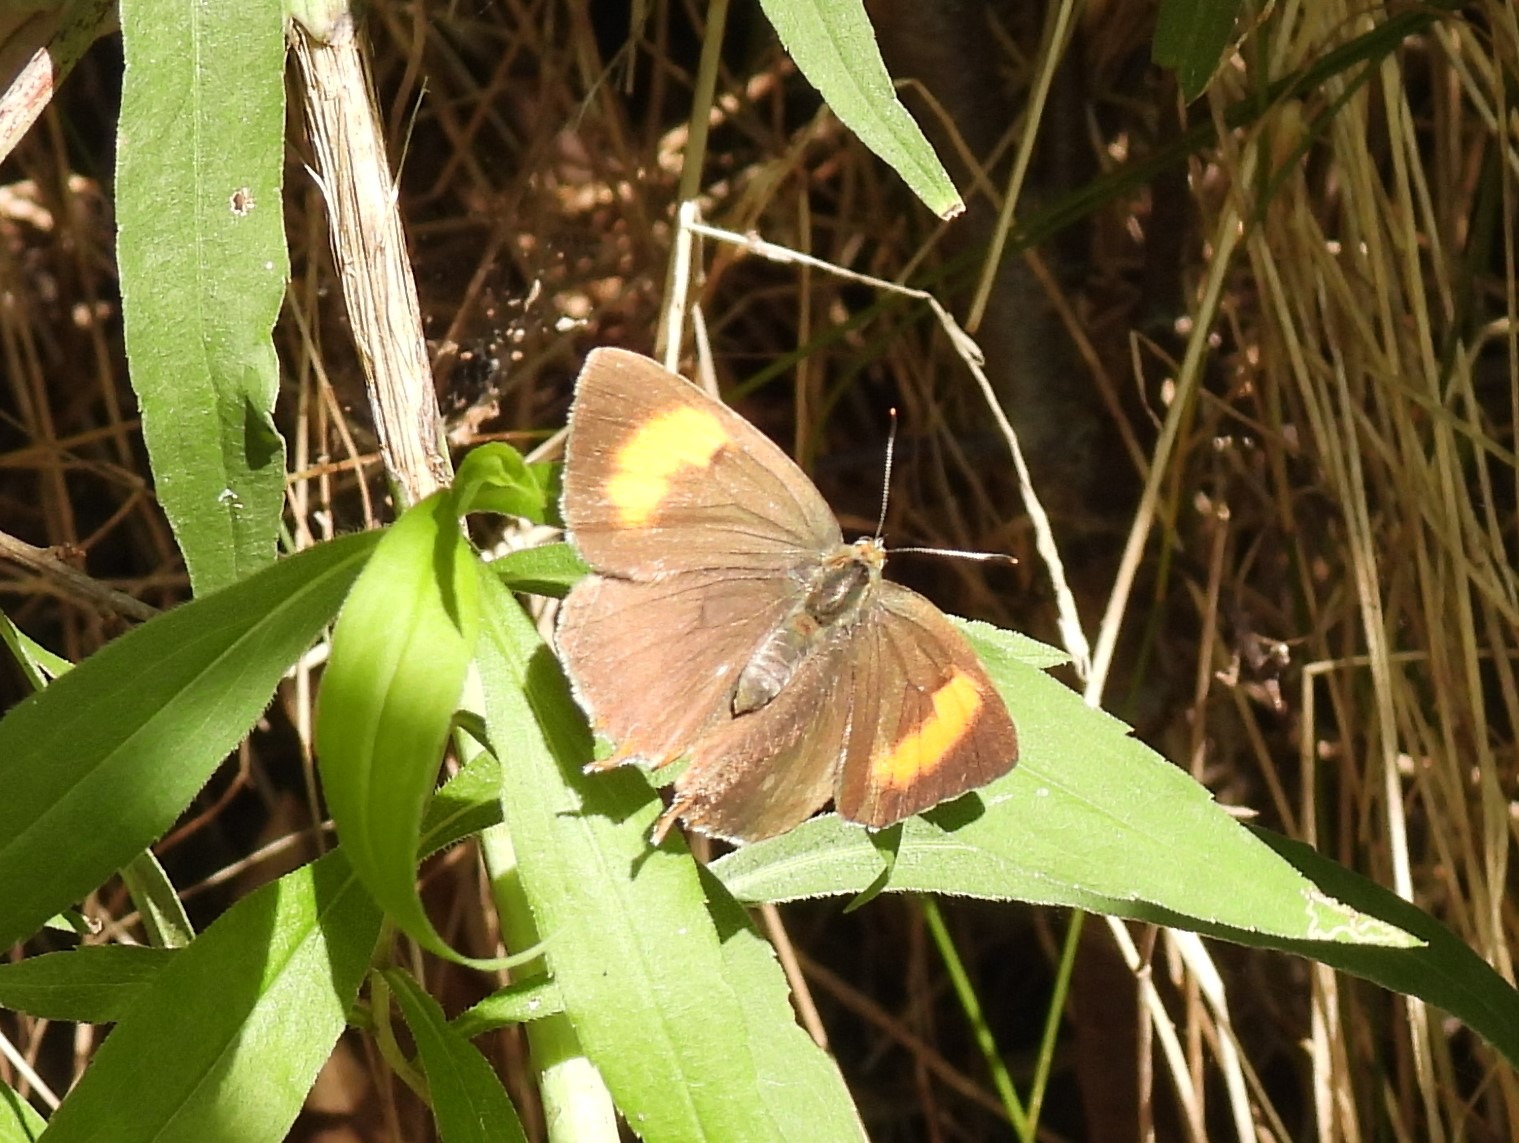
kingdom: Animalia
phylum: Arthropoda
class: Insecta
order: Lepidoptera
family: Lycaenidae
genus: Thecla
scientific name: Thecla betulae
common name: Guldhale
